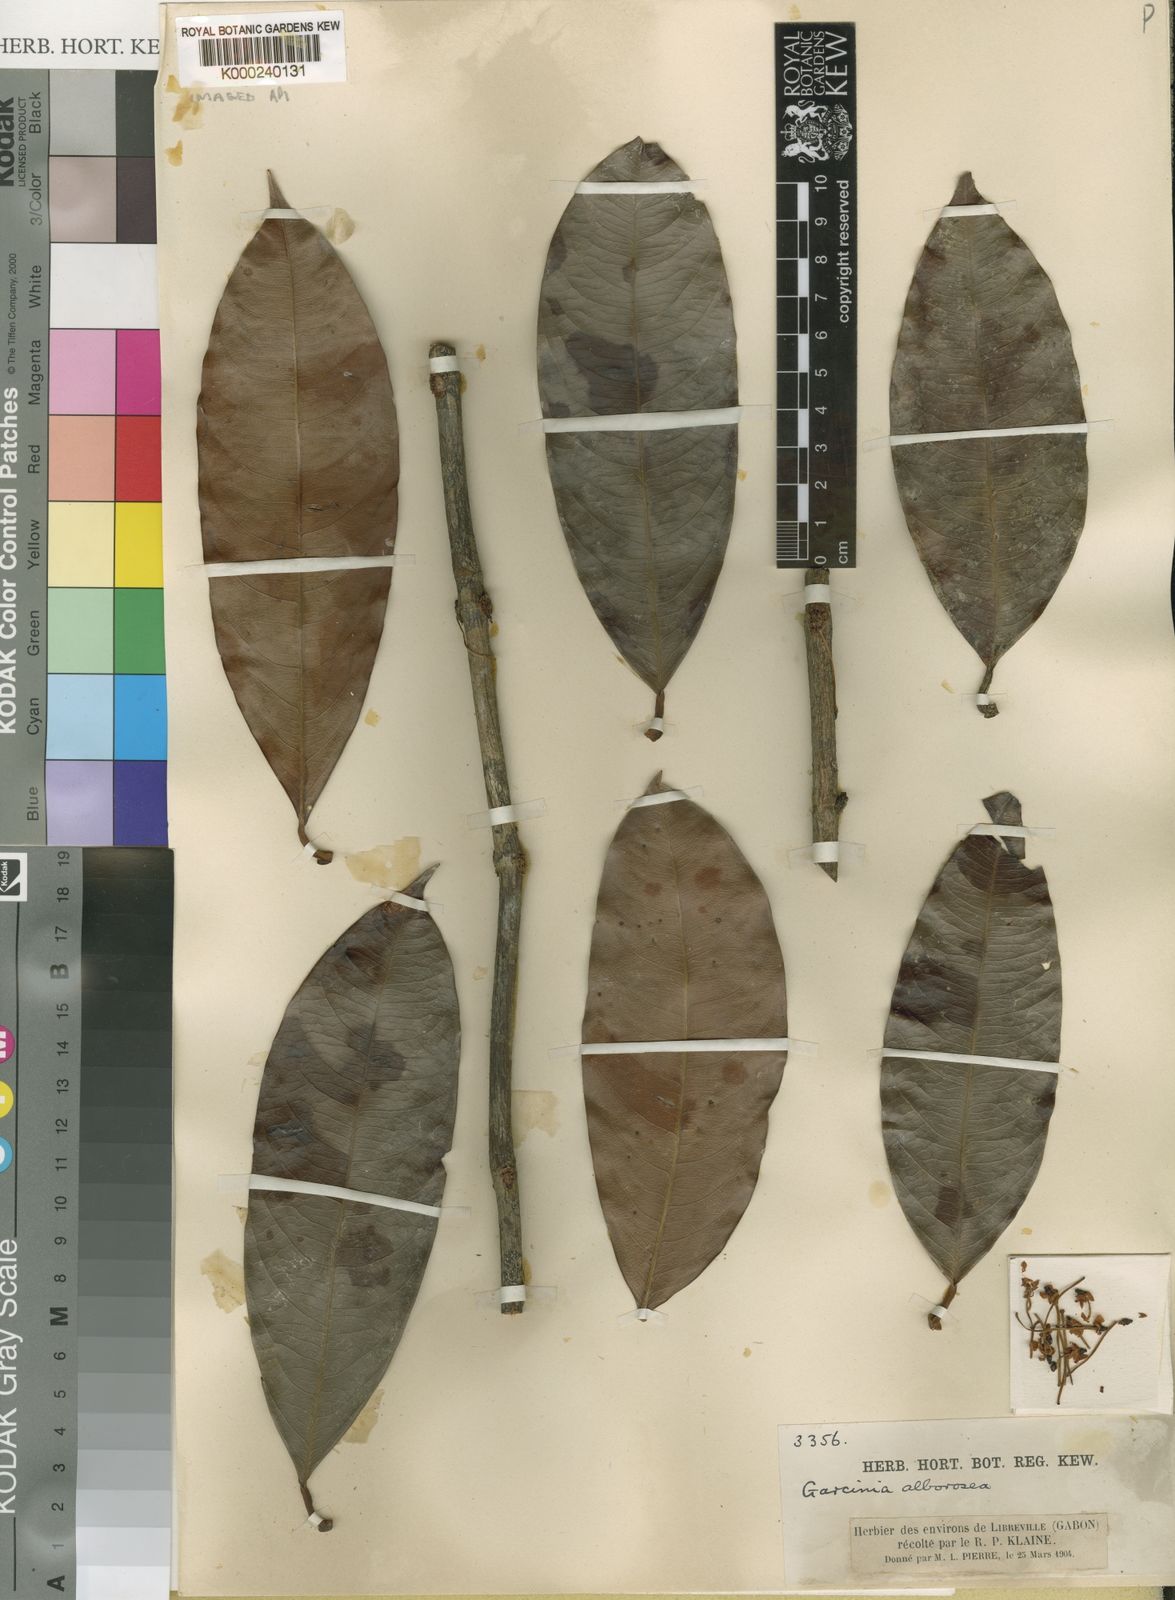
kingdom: Plantae
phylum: Tracheophyta
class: Magnoliopsida
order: Malpighiales
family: Clusiaceae
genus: Garcinia
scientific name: Garcinia smeathmannii
